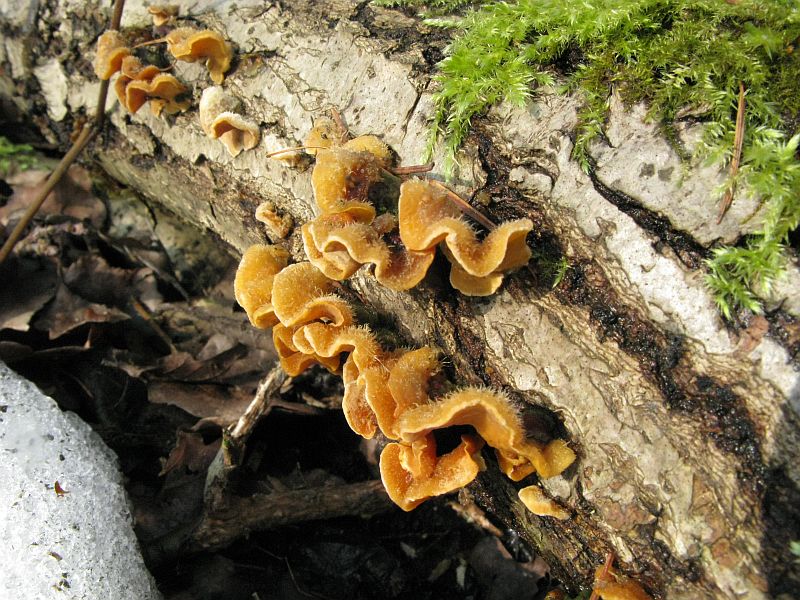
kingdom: Fungi
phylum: Basidiomycota
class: Agaricomycetes
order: Russulales
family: Stereaceae
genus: Stereum
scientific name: Stereum hirsutum
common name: håret lædersvamp
